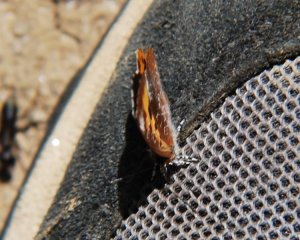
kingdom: Animalia
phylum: Arthropoda
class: Insecta
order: Lepidoptera
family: Lycaenidae
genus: Feniseca
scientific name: Feniseca tarquinius
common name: Harvester
